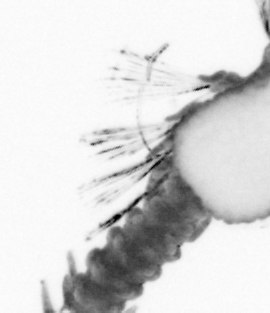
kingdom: Animalia
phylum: Annelida
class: Polychaeta
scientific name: Polychaeta
